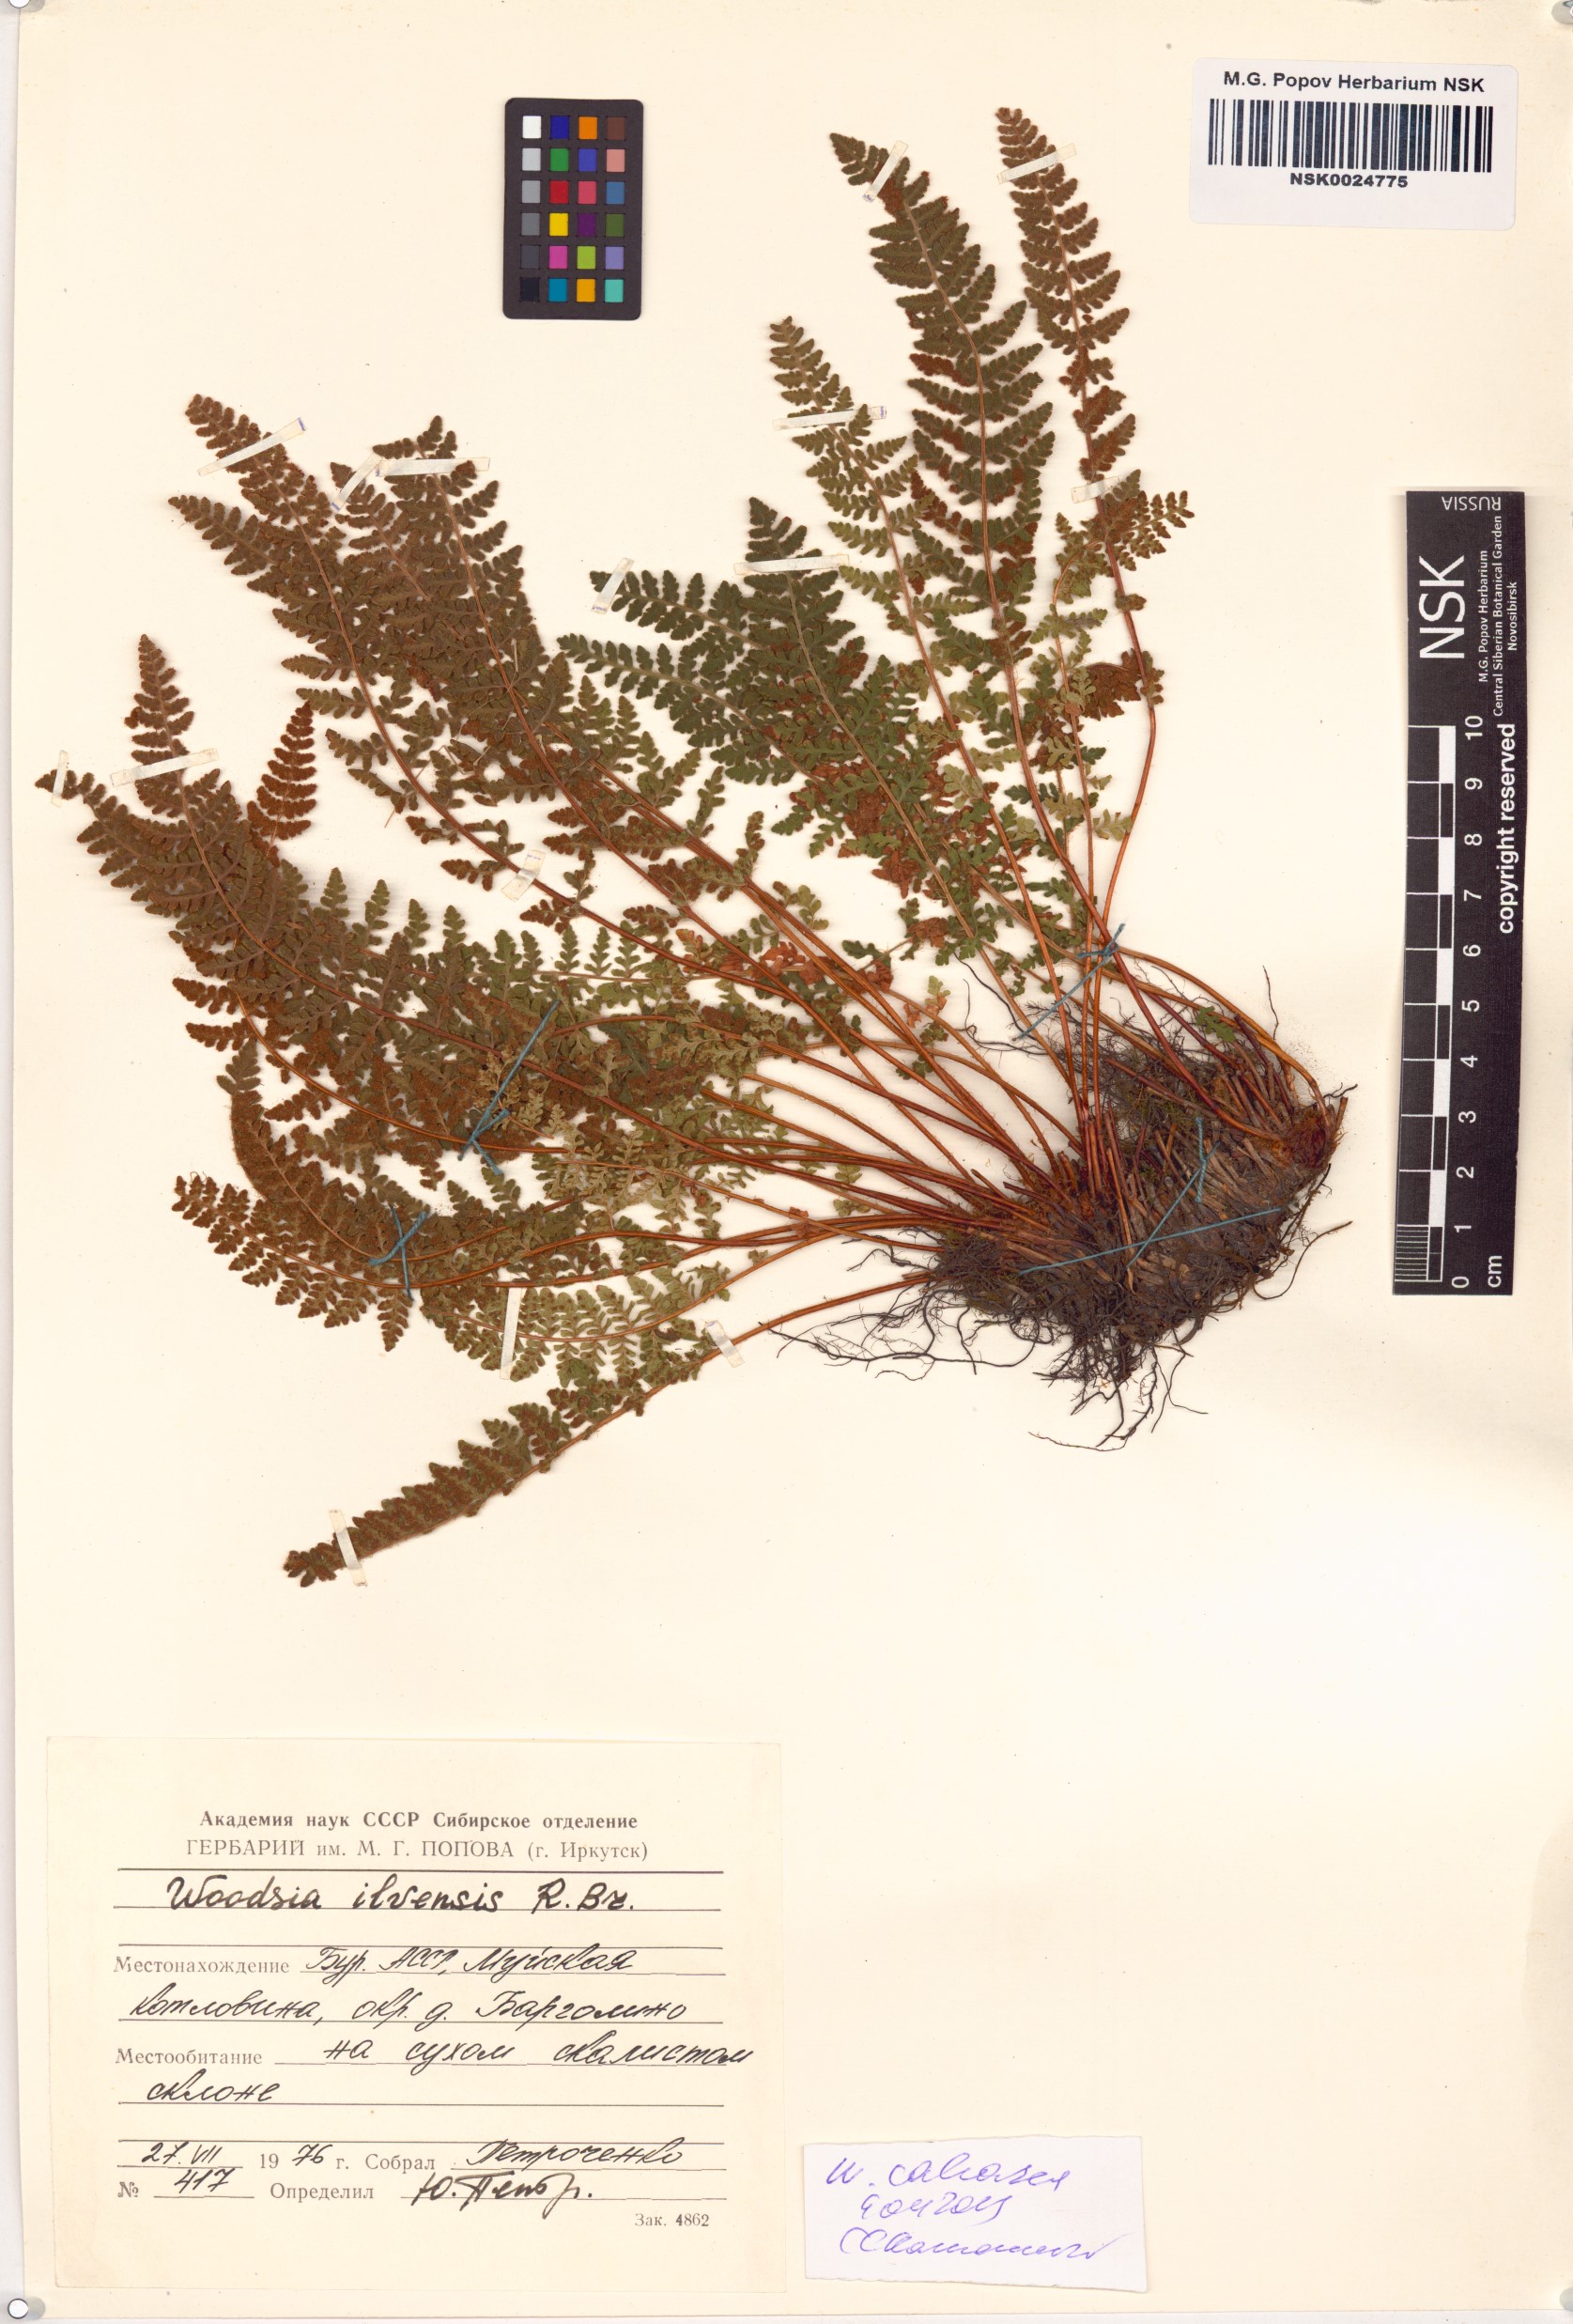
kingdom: Plantae
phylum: Tracheophyta
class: Polypodiopsida
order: Polypodiales
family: Woodsiaceae
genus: Woodsia
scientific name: Woodsia calcarea
